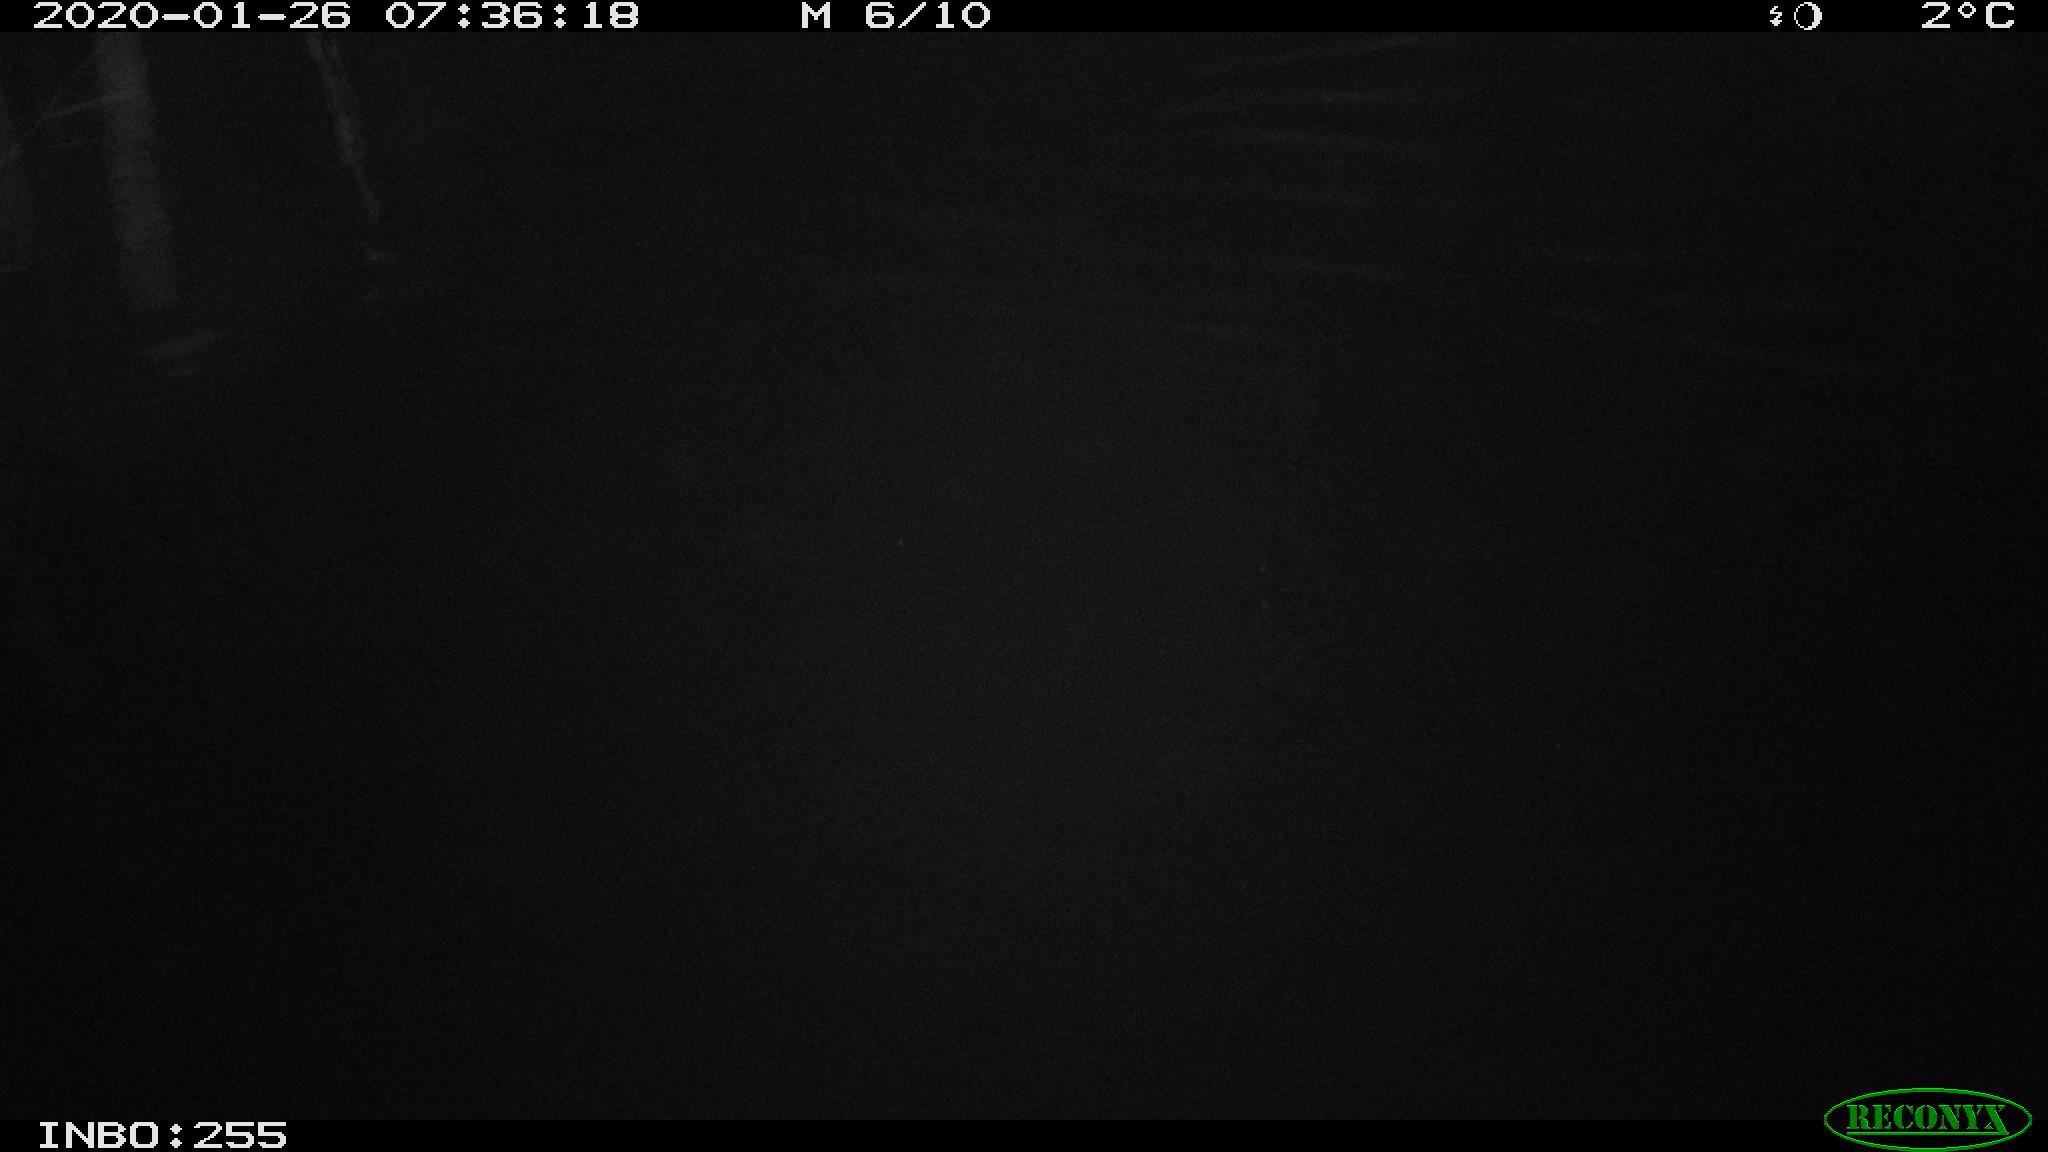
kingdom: Animalia
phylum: Chordata
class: Aves
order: Gruiformes
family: Rallidae
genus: Gallinula
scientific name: Gallinula chloropus
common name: Common moorhen
